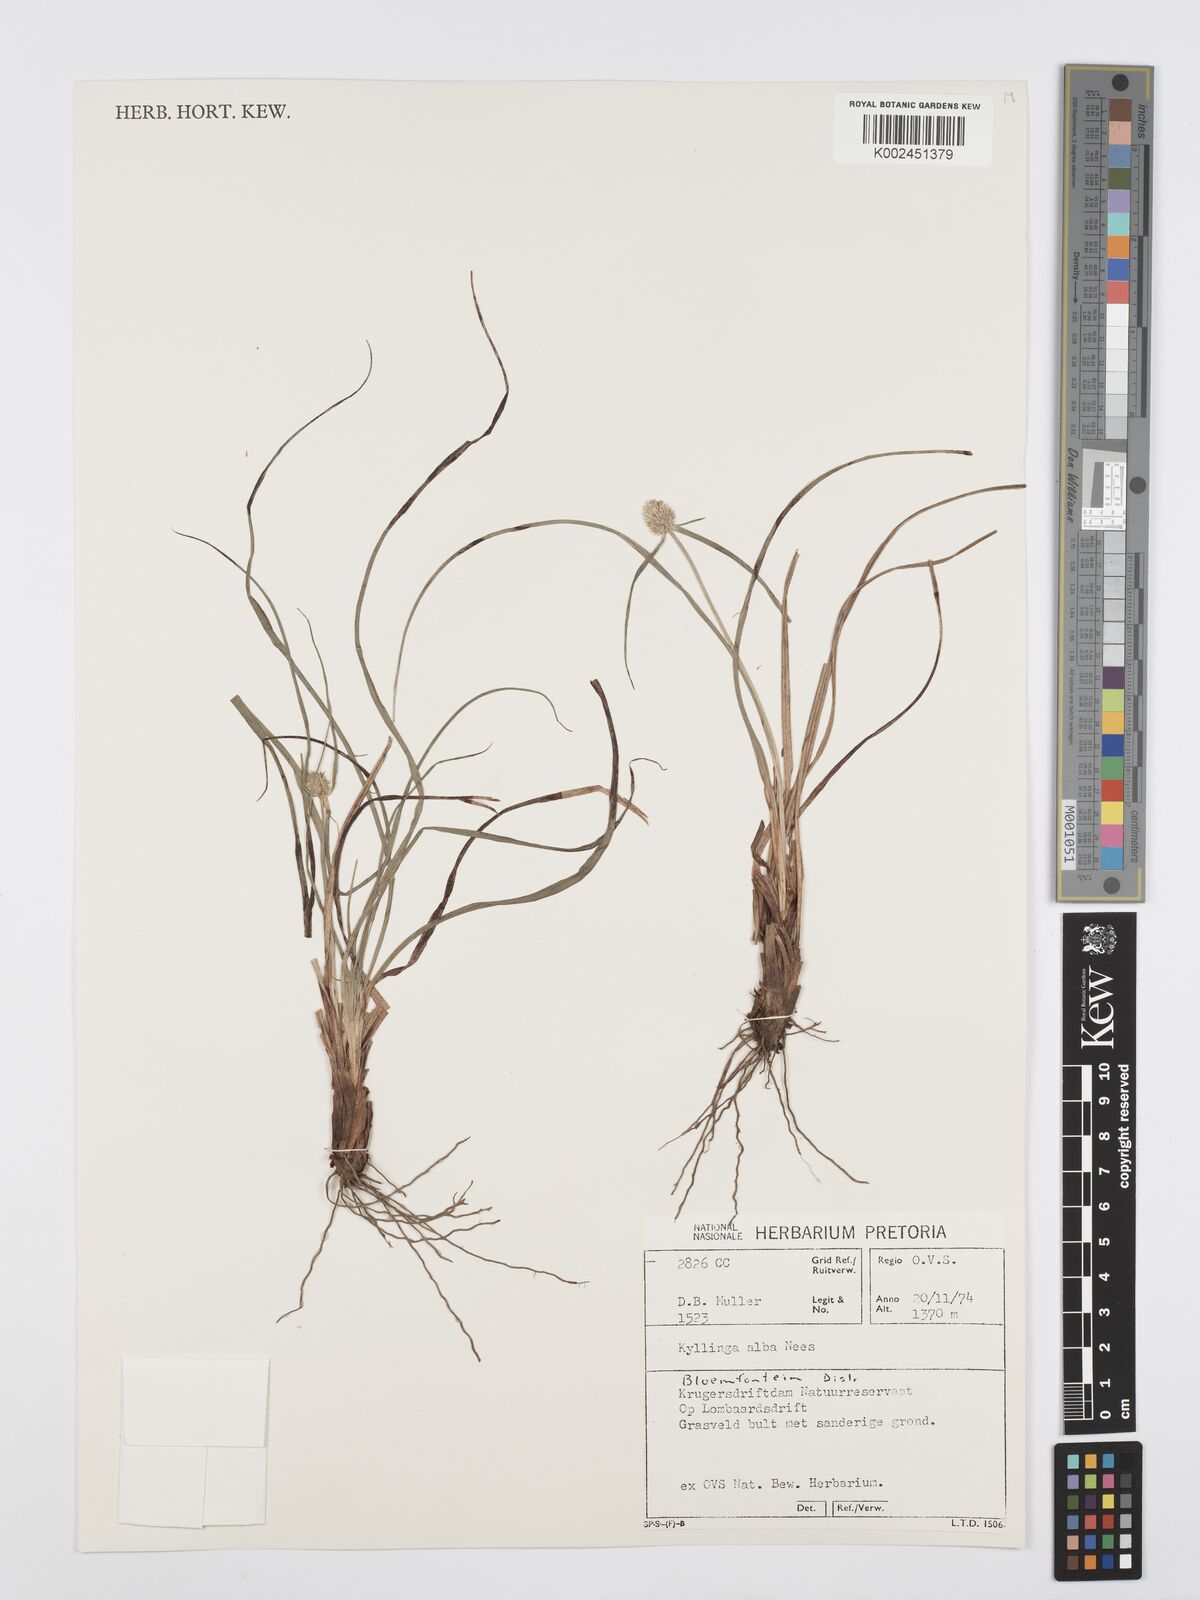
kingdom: Plantae
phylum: Tracheophyta
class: Liliopsida
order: Poales
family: Cyperaceae
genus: Cyperus
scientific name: Cyperus
